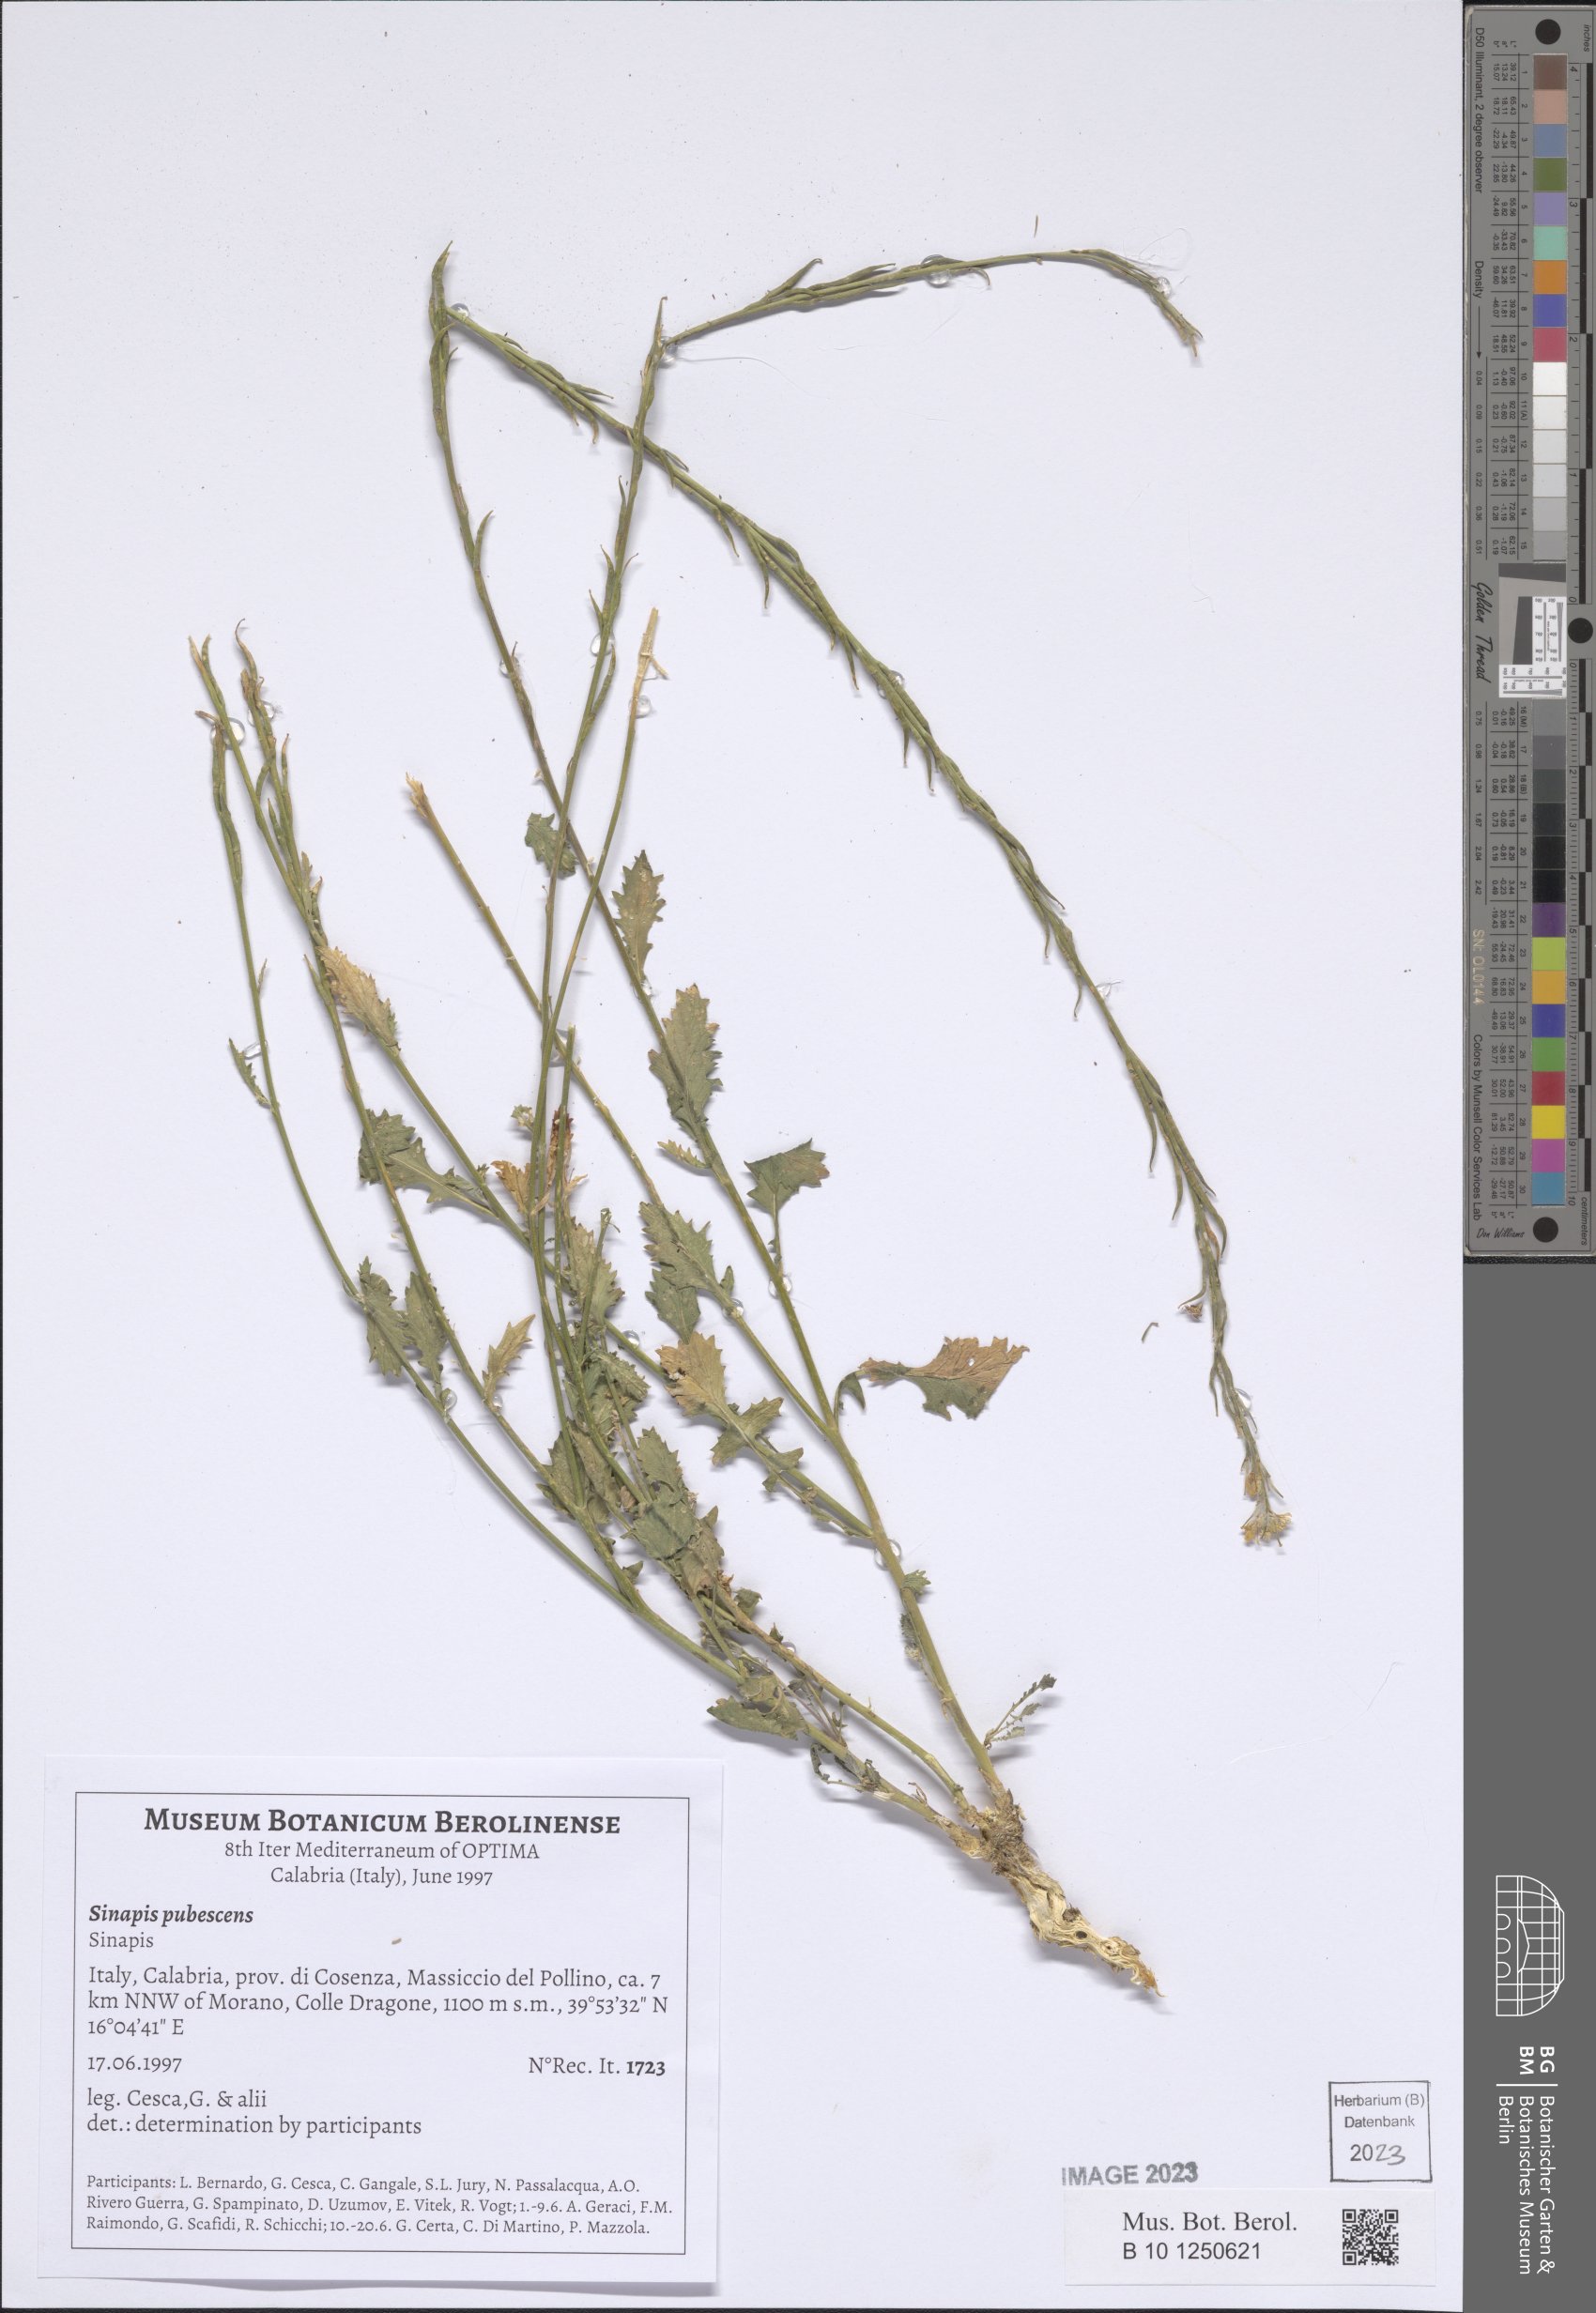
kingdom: Plantae
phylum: Tracheophyta
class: Magnoliopsida
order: Brassicales
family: Brassicaceae
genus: Sinapis
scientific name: Sinapis pubescens
